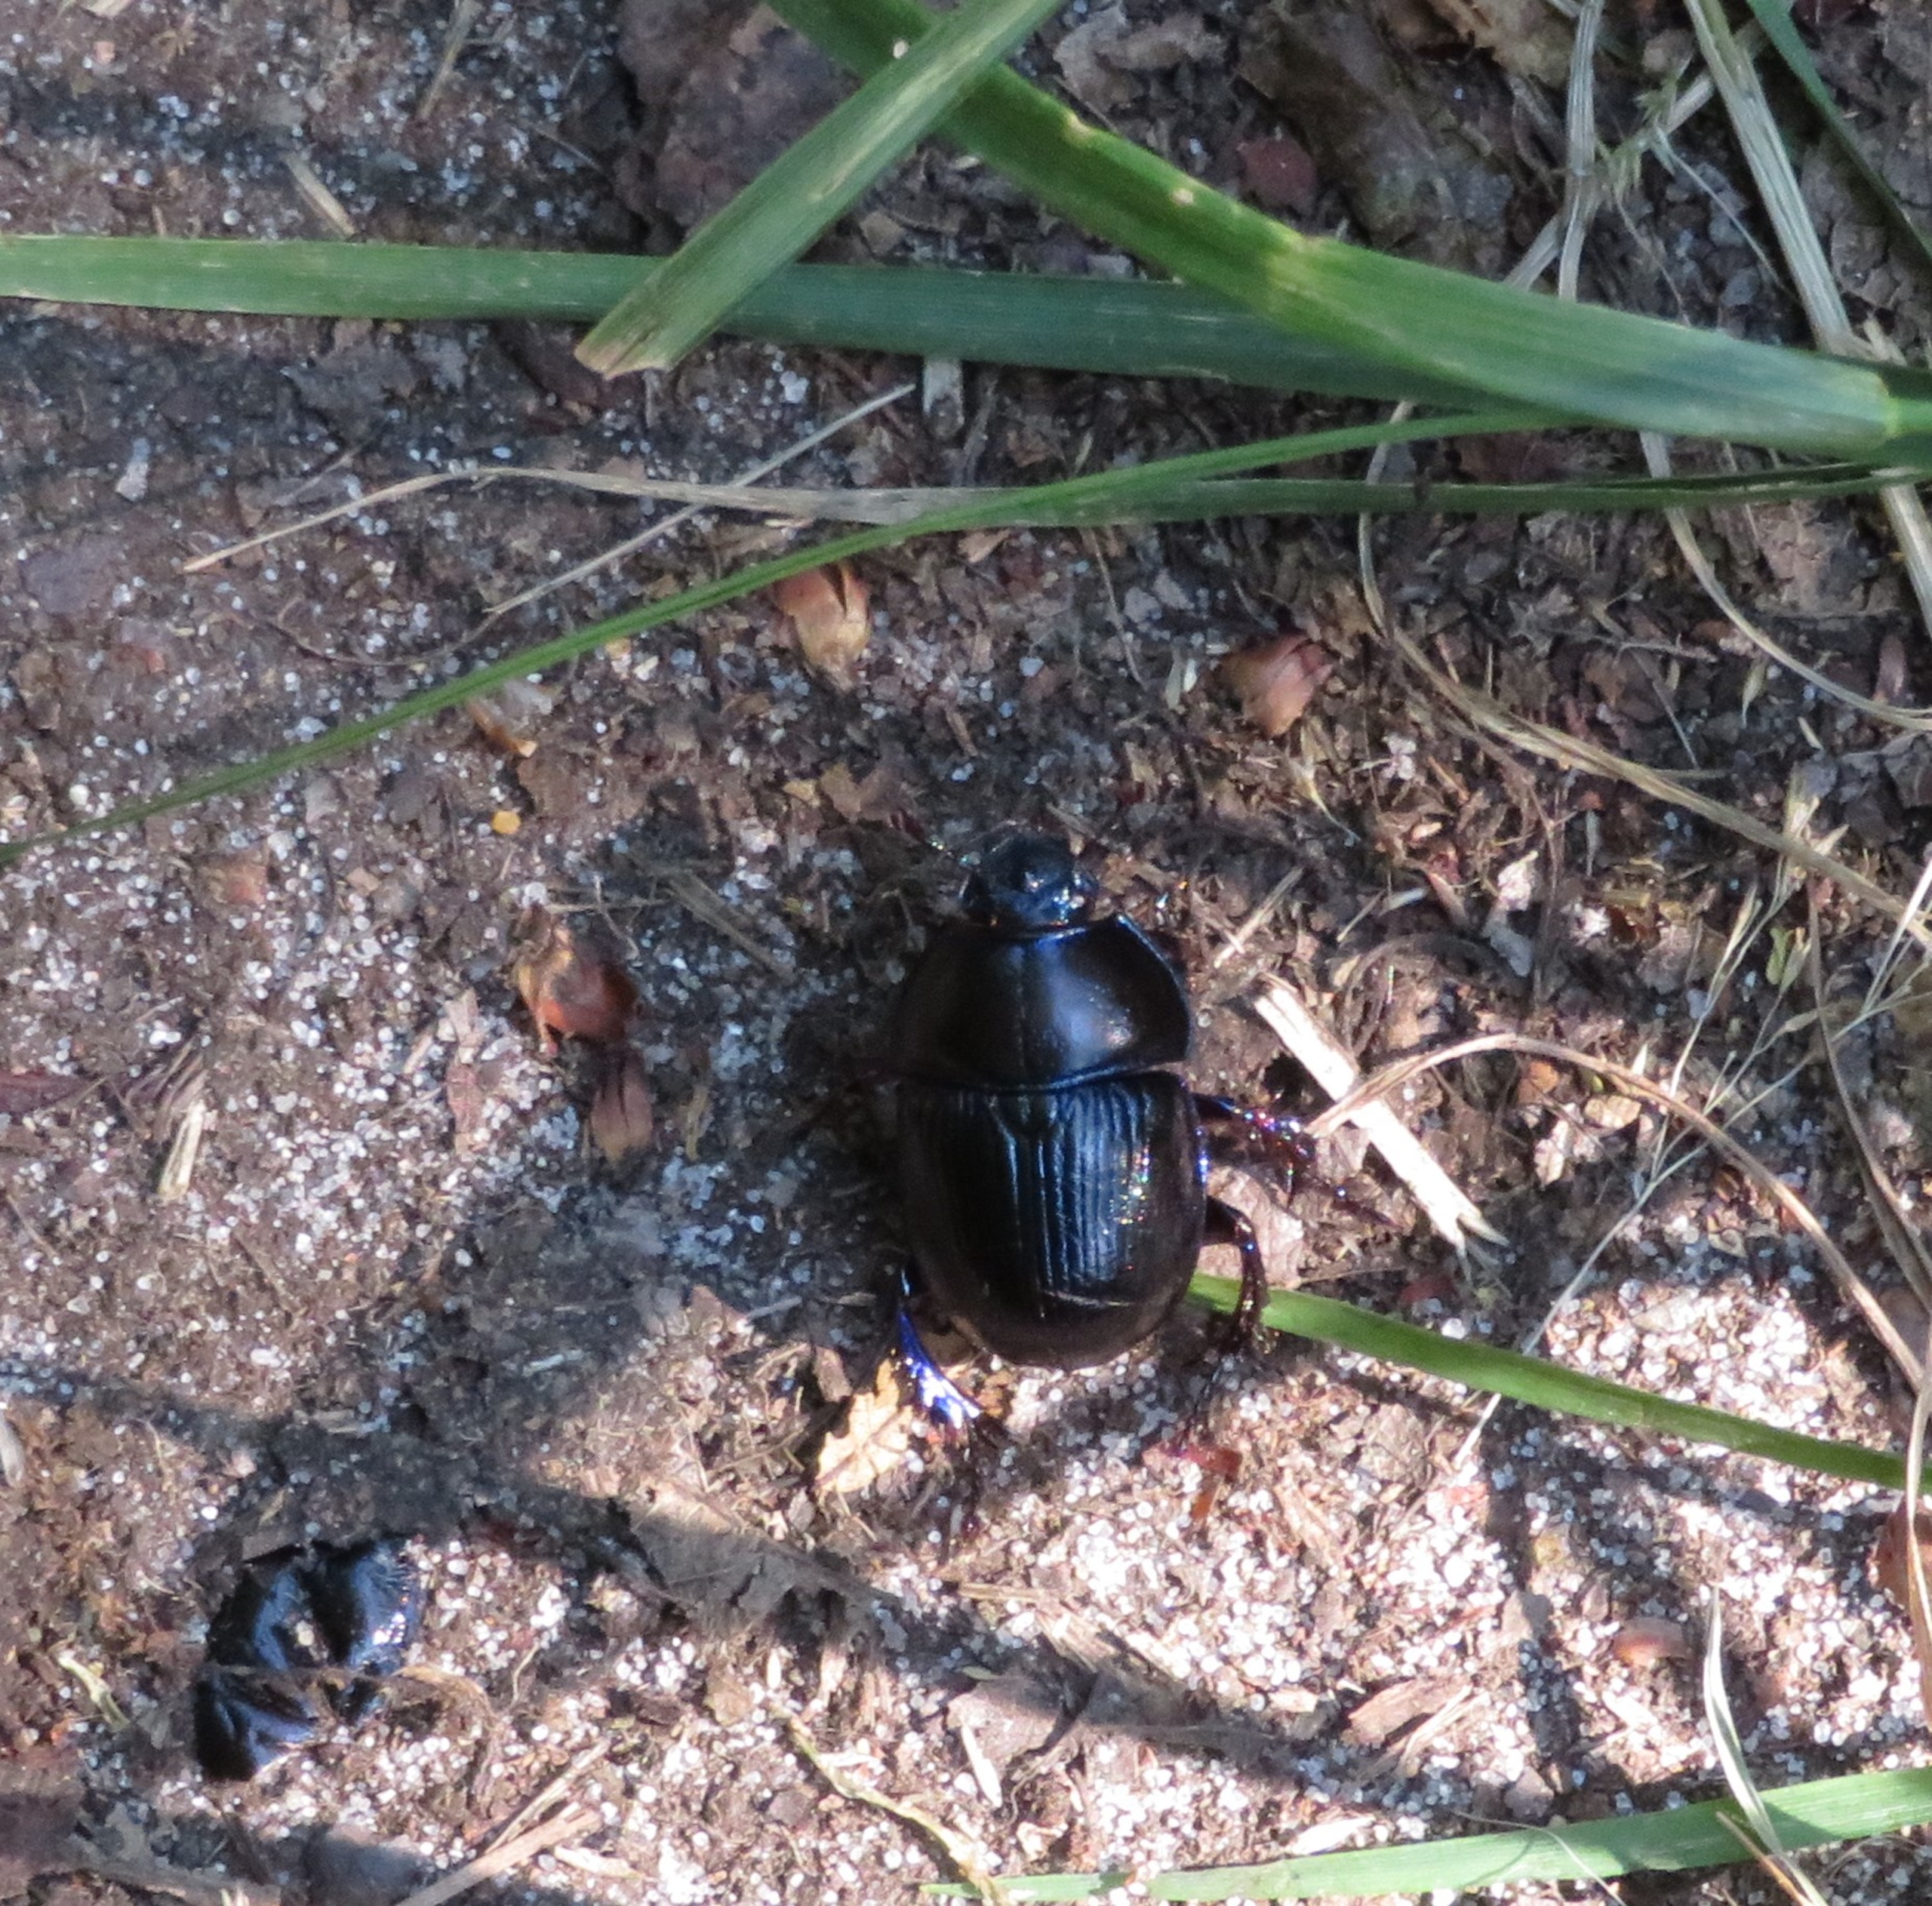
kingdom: Animalia
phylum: Arthropoda
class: Insecta
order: Coleoptera
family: Geotrupidae
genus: Anoplotrupes
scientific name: Anoplotrupes stercorosus
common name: Skovskarnbasse
